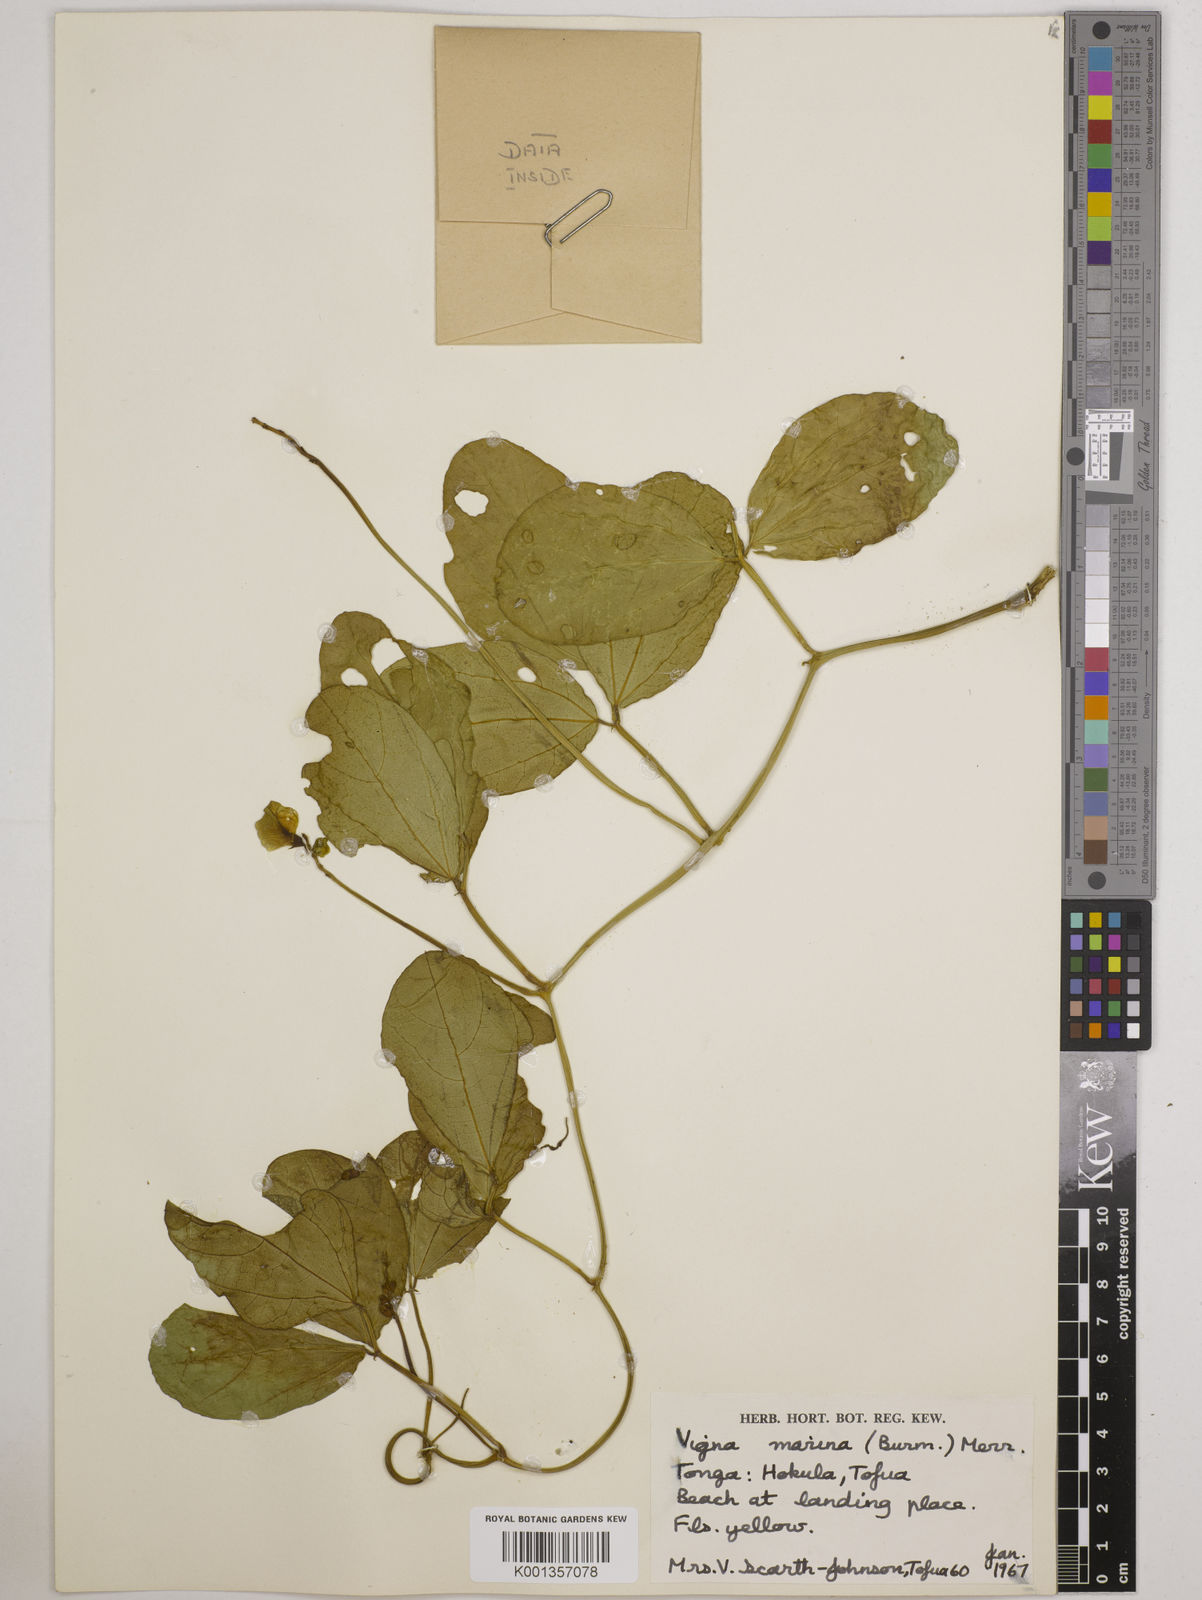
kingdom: Plantae
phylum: Tracheophyta
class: Magnoliopsida
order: Fabales
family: Fabaceae
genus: Vigna
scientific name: Vigna marina
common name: Dune-bean
